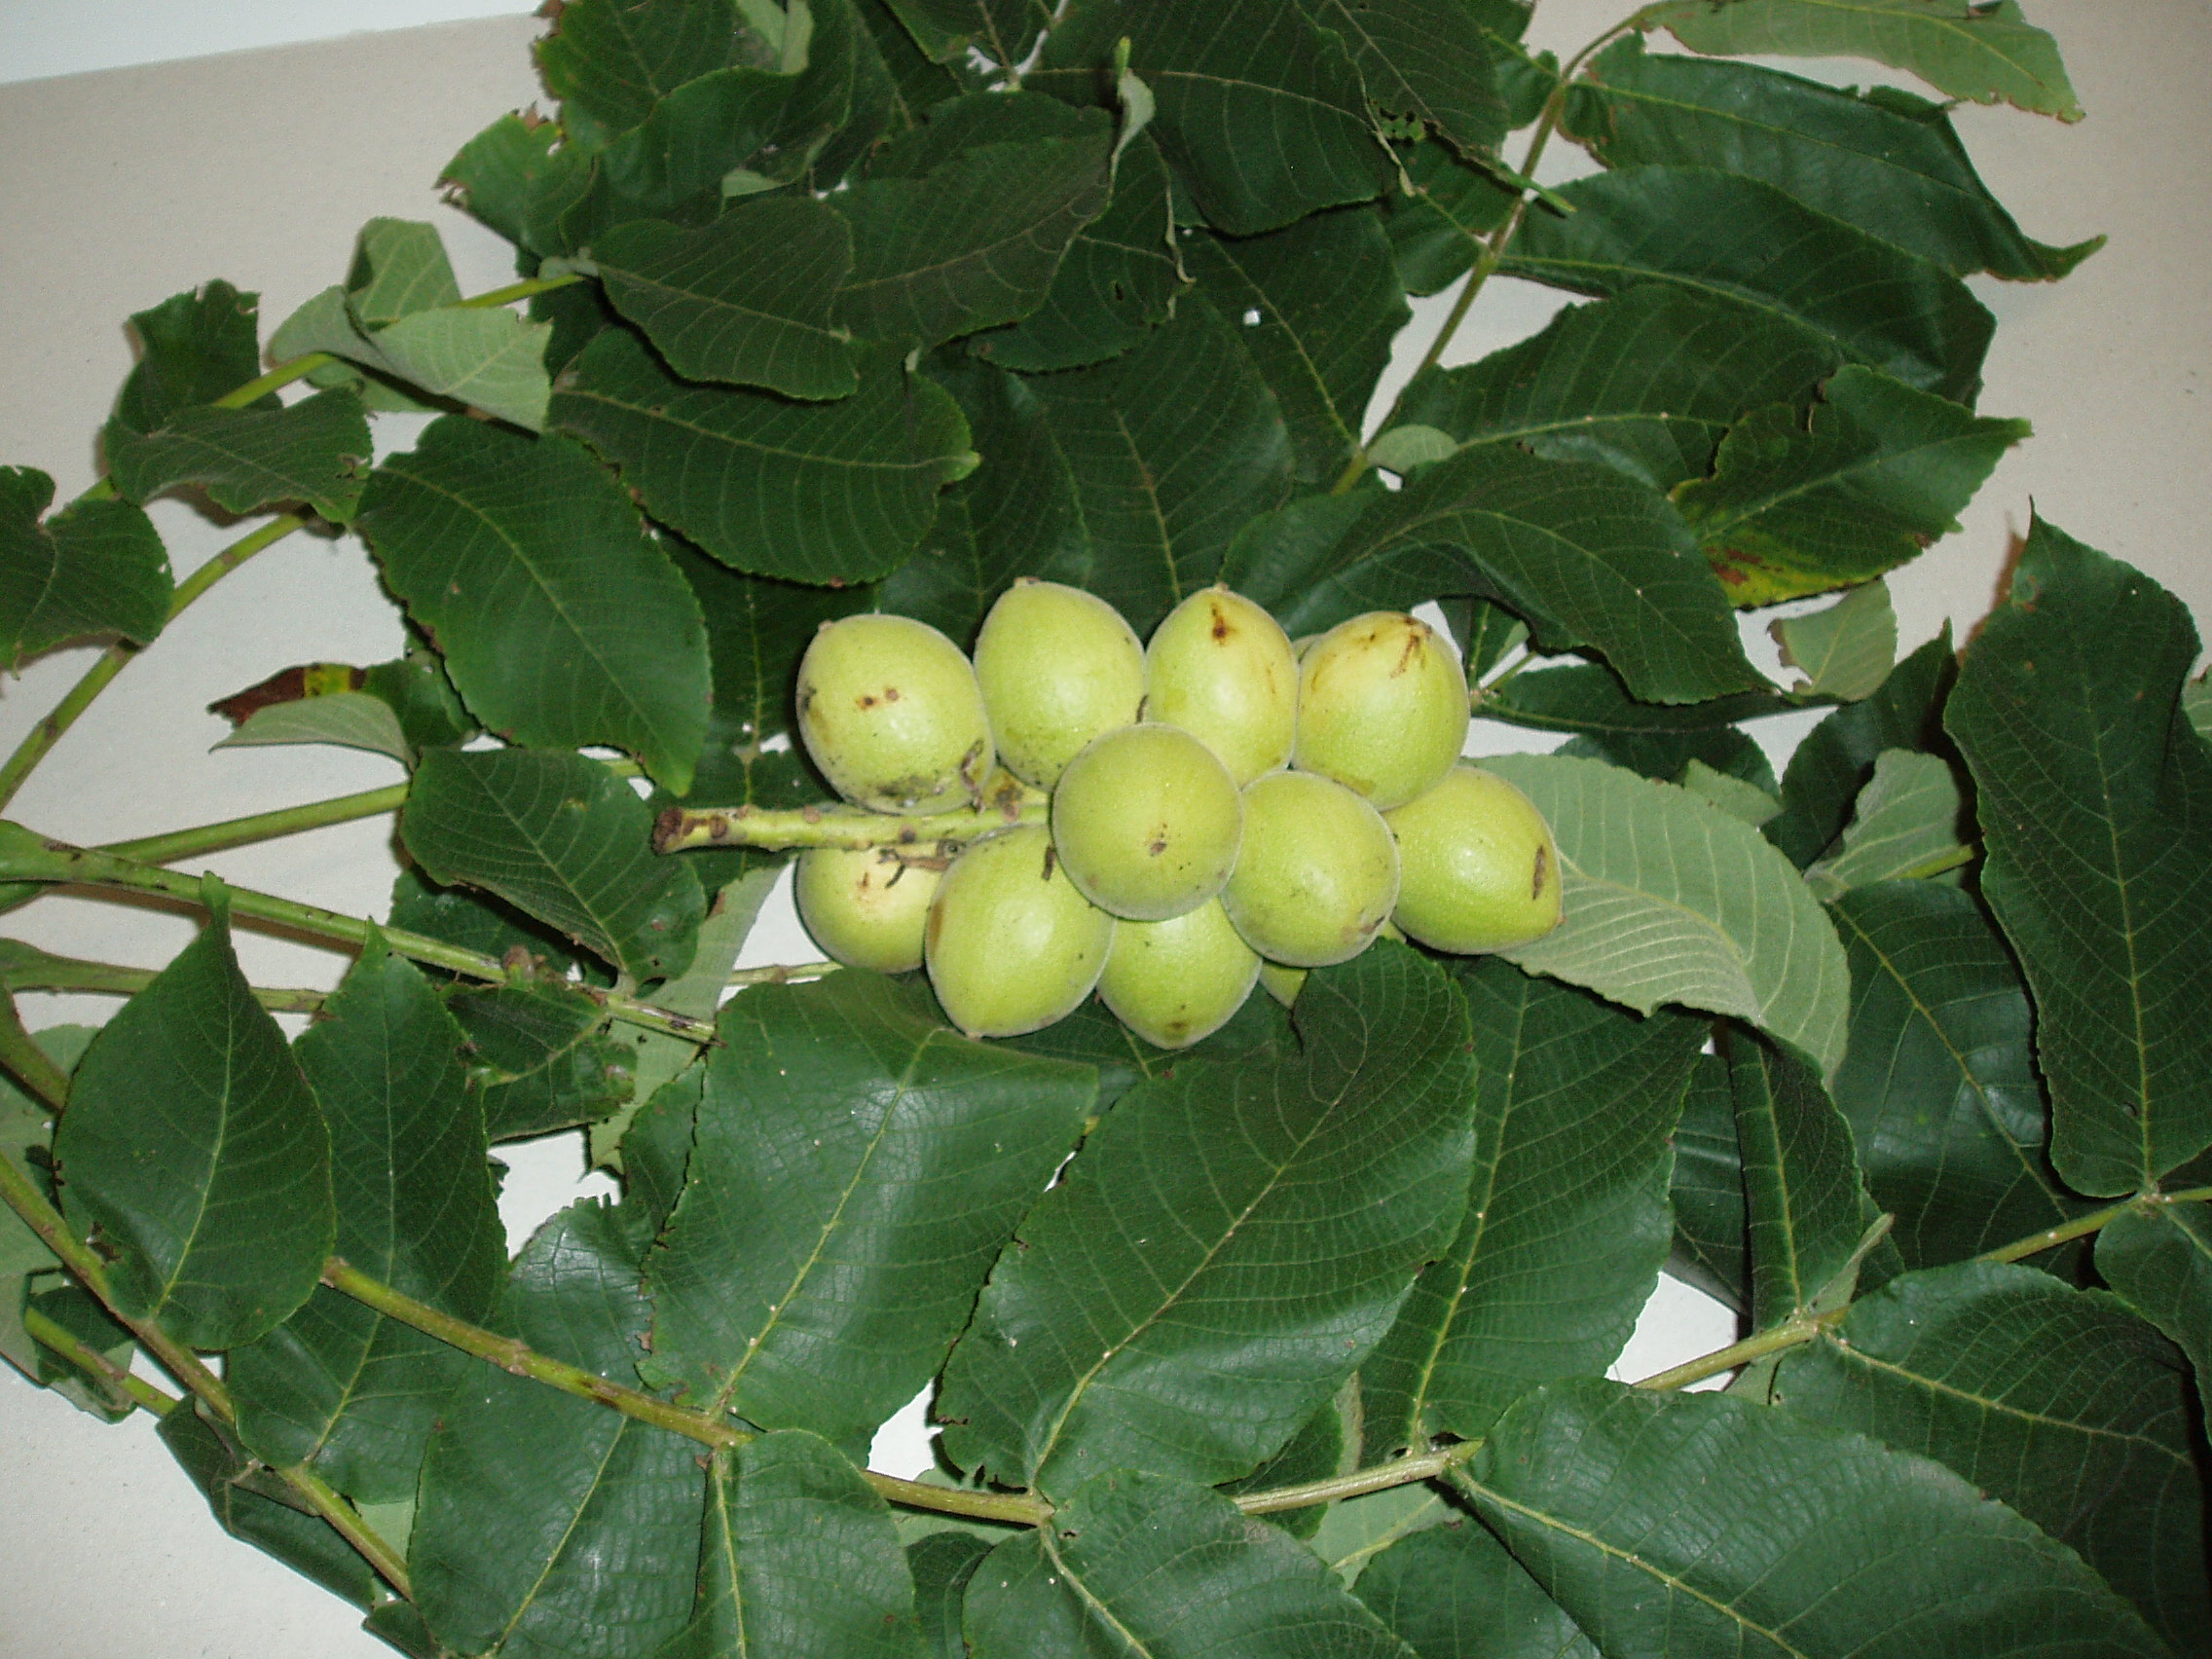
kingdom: Plantae
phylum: Tracheophyta
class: Magnoliopsida
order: Fagales
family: Juglandaceae
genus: Juglans
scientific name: Juglans ailantifolia
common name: Japanese walnut
